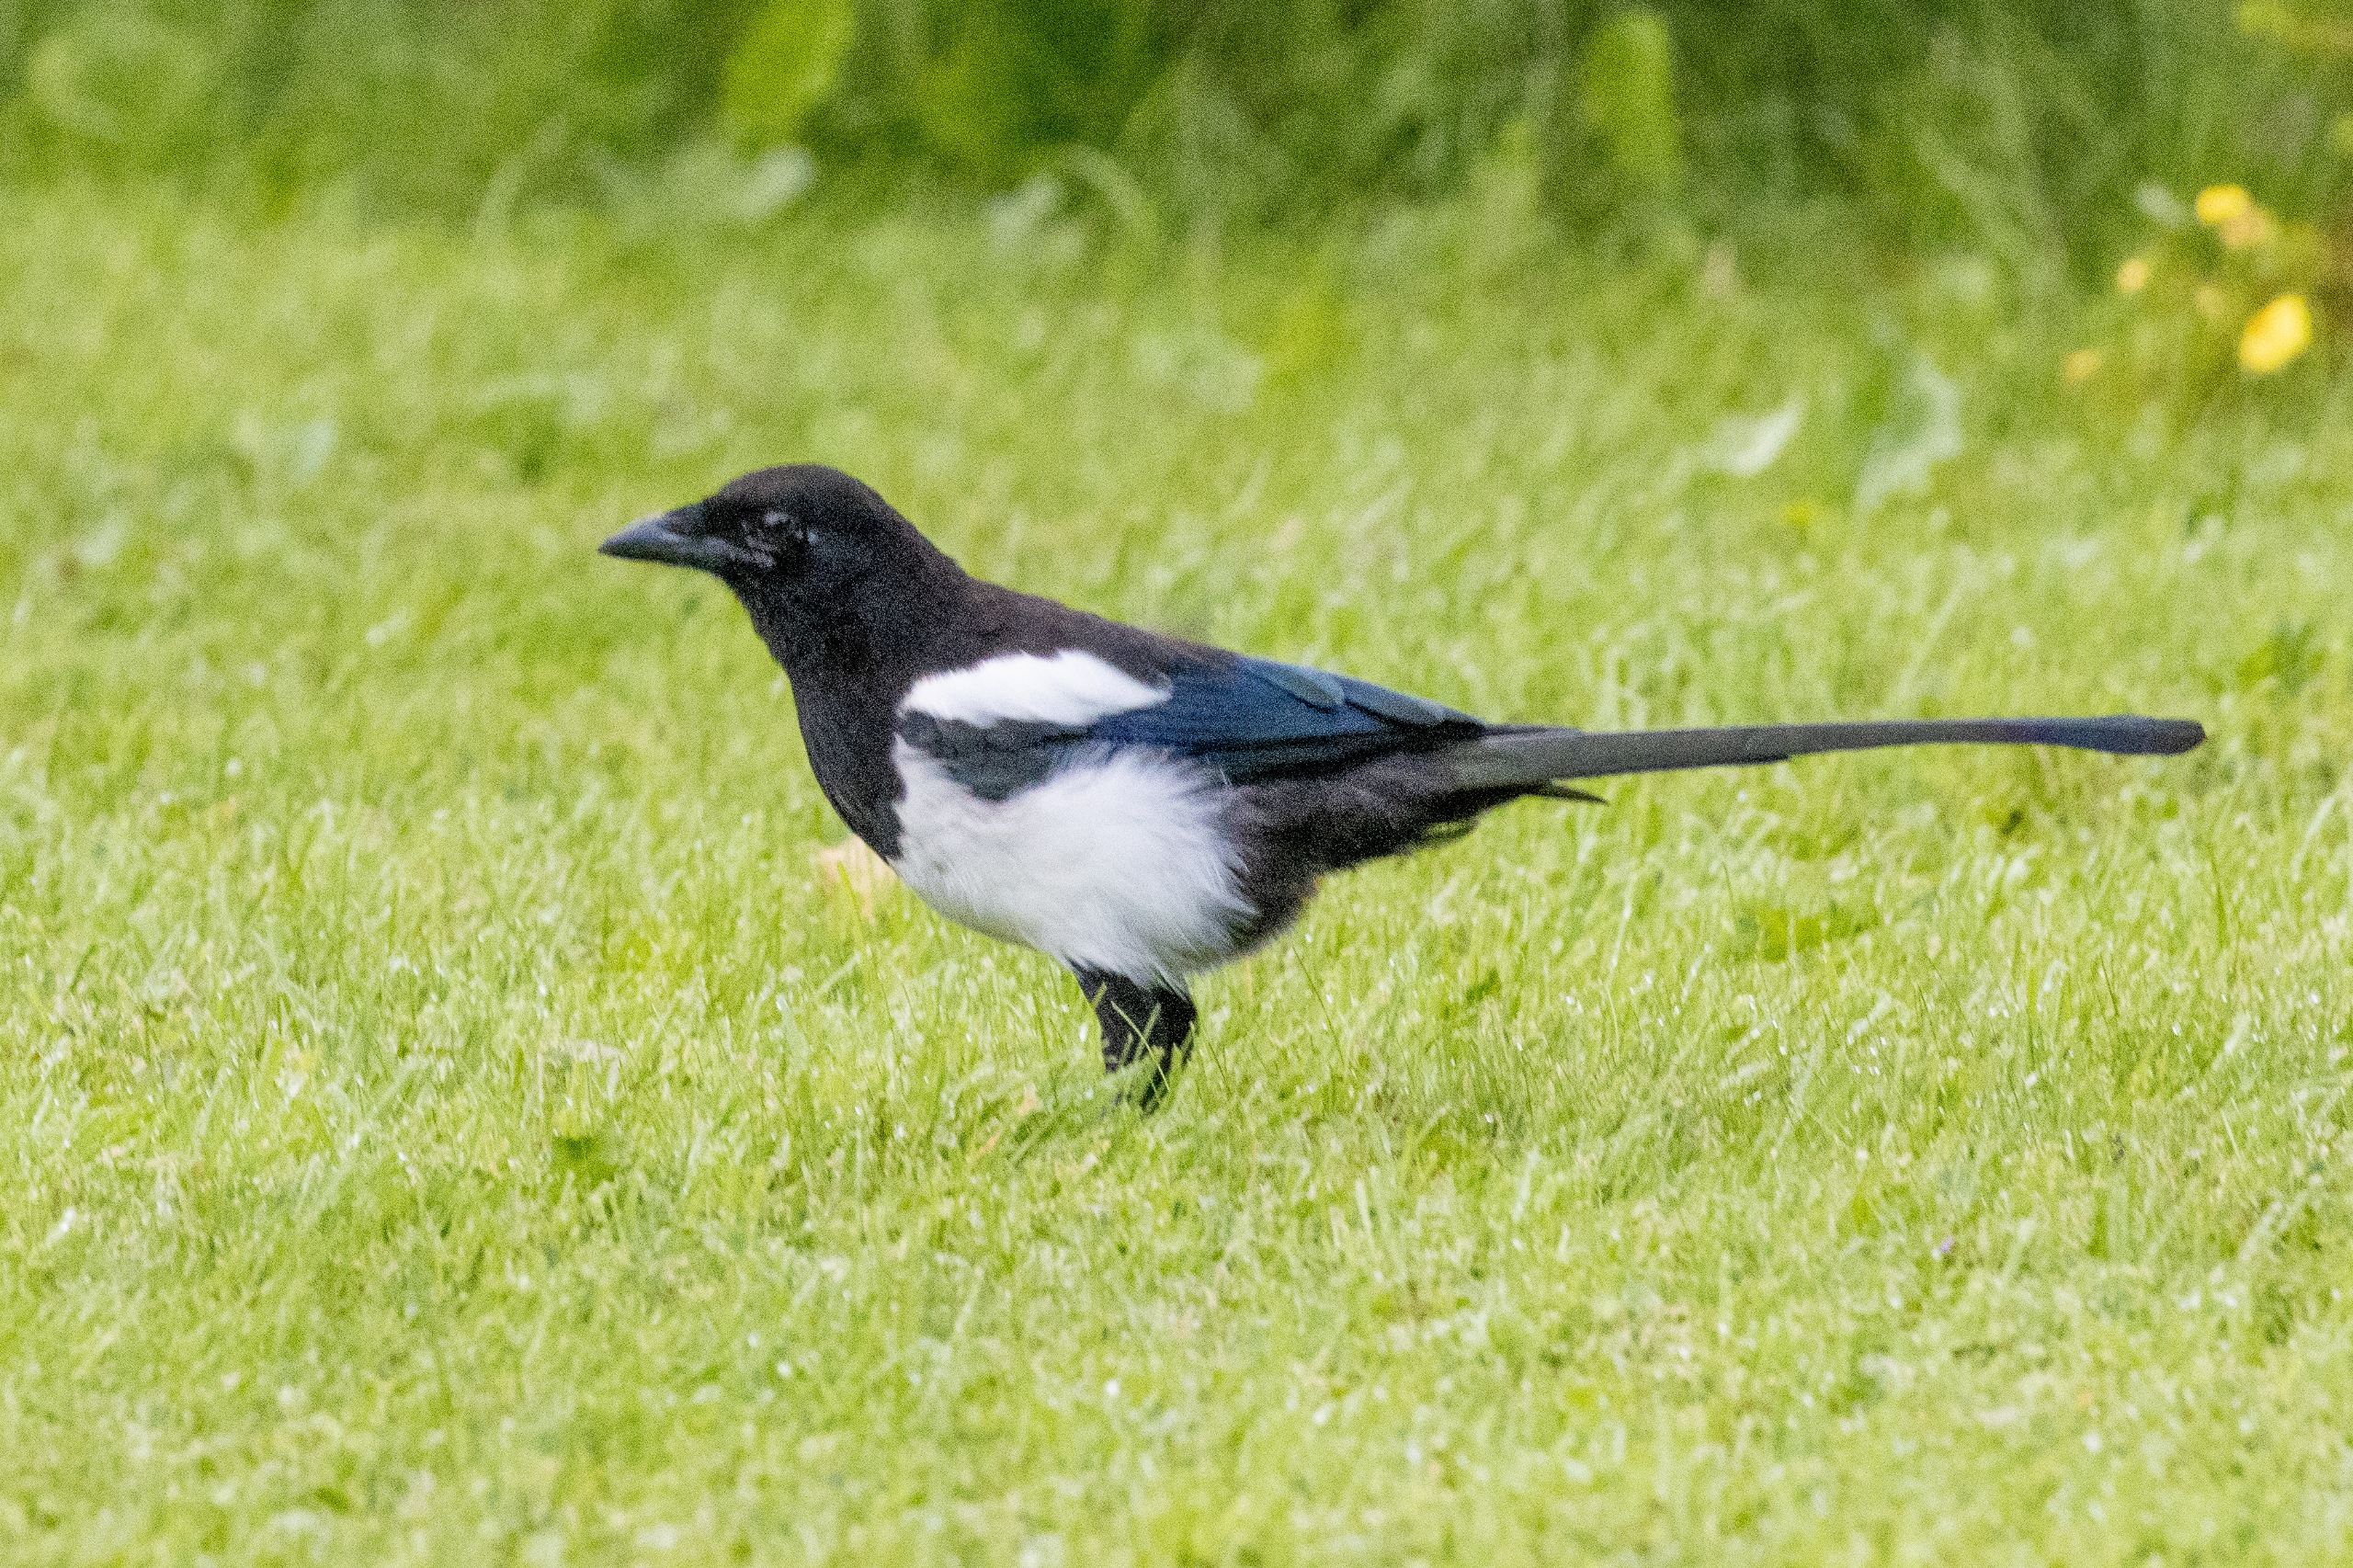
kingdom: Animalia
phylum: Chordata
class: Aves
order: Passeriformes
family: Corvidae
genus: Pica
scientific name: Pica pica
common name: Husskade
